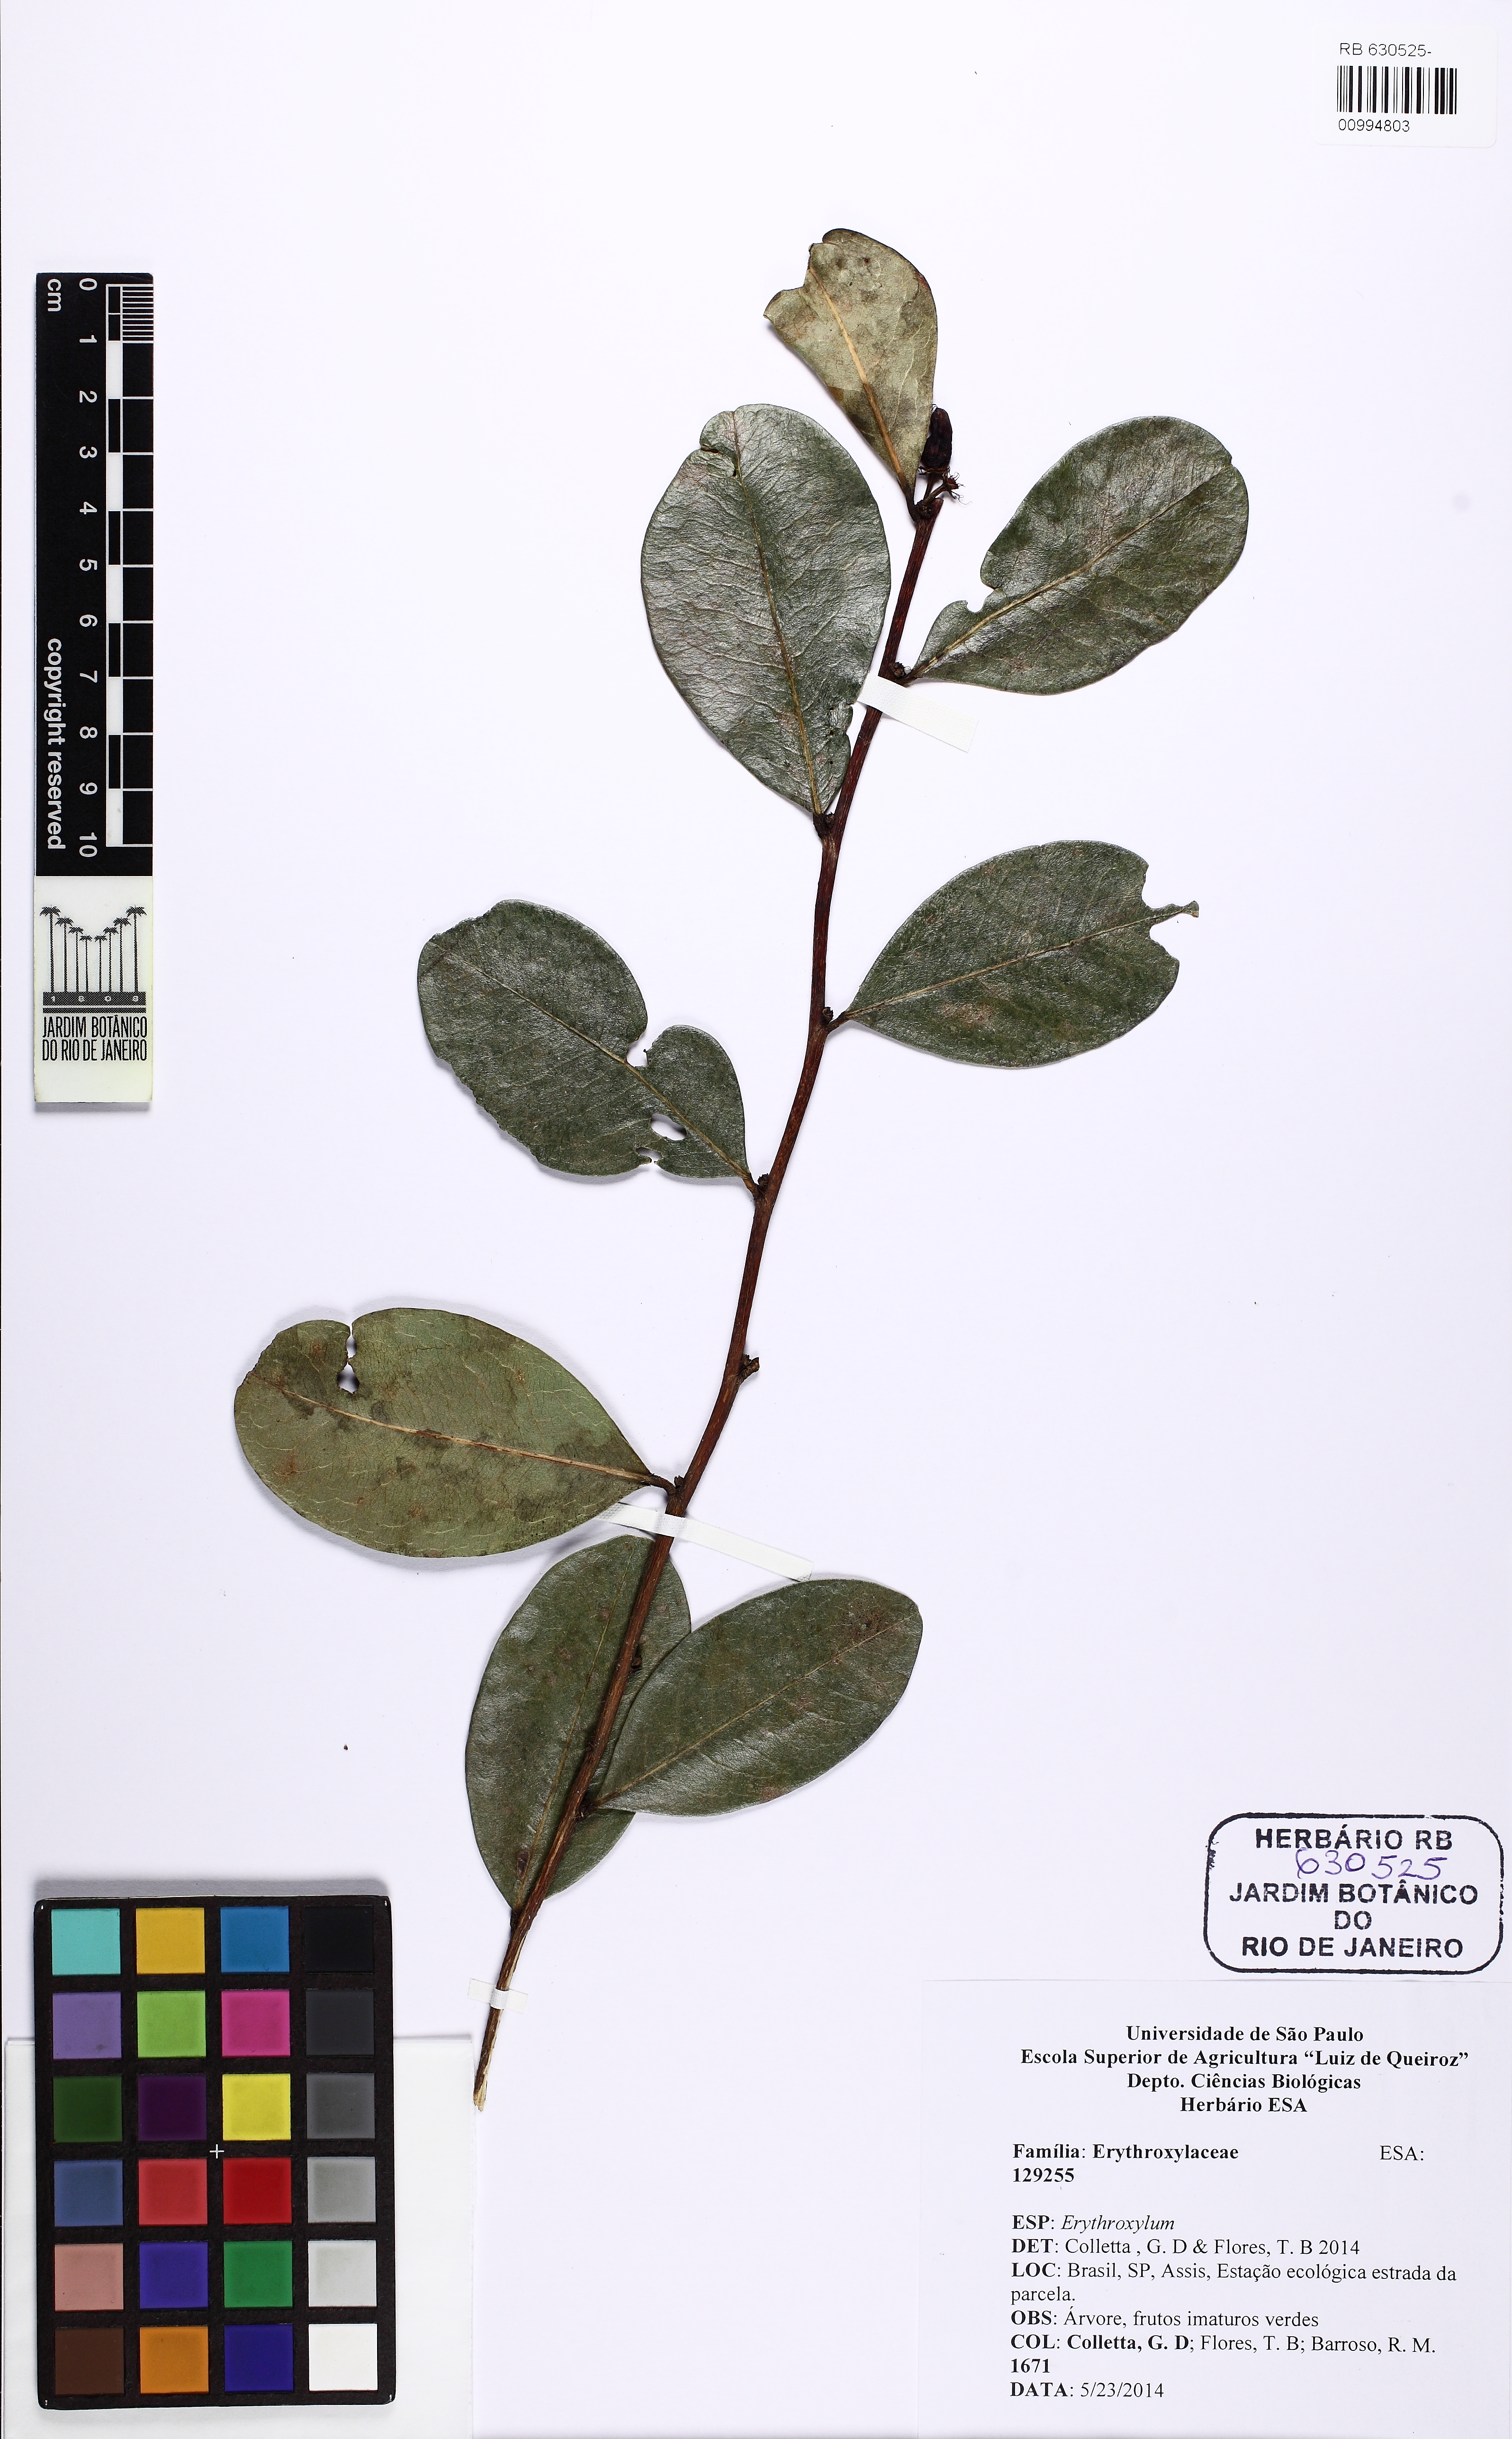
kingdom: Plantae
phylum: Tracheophyta
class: Magnoliopsida
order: Malpighiales
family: Erythroxylaceae
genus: Erythroxylum
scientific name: Erythroxylum campestre
